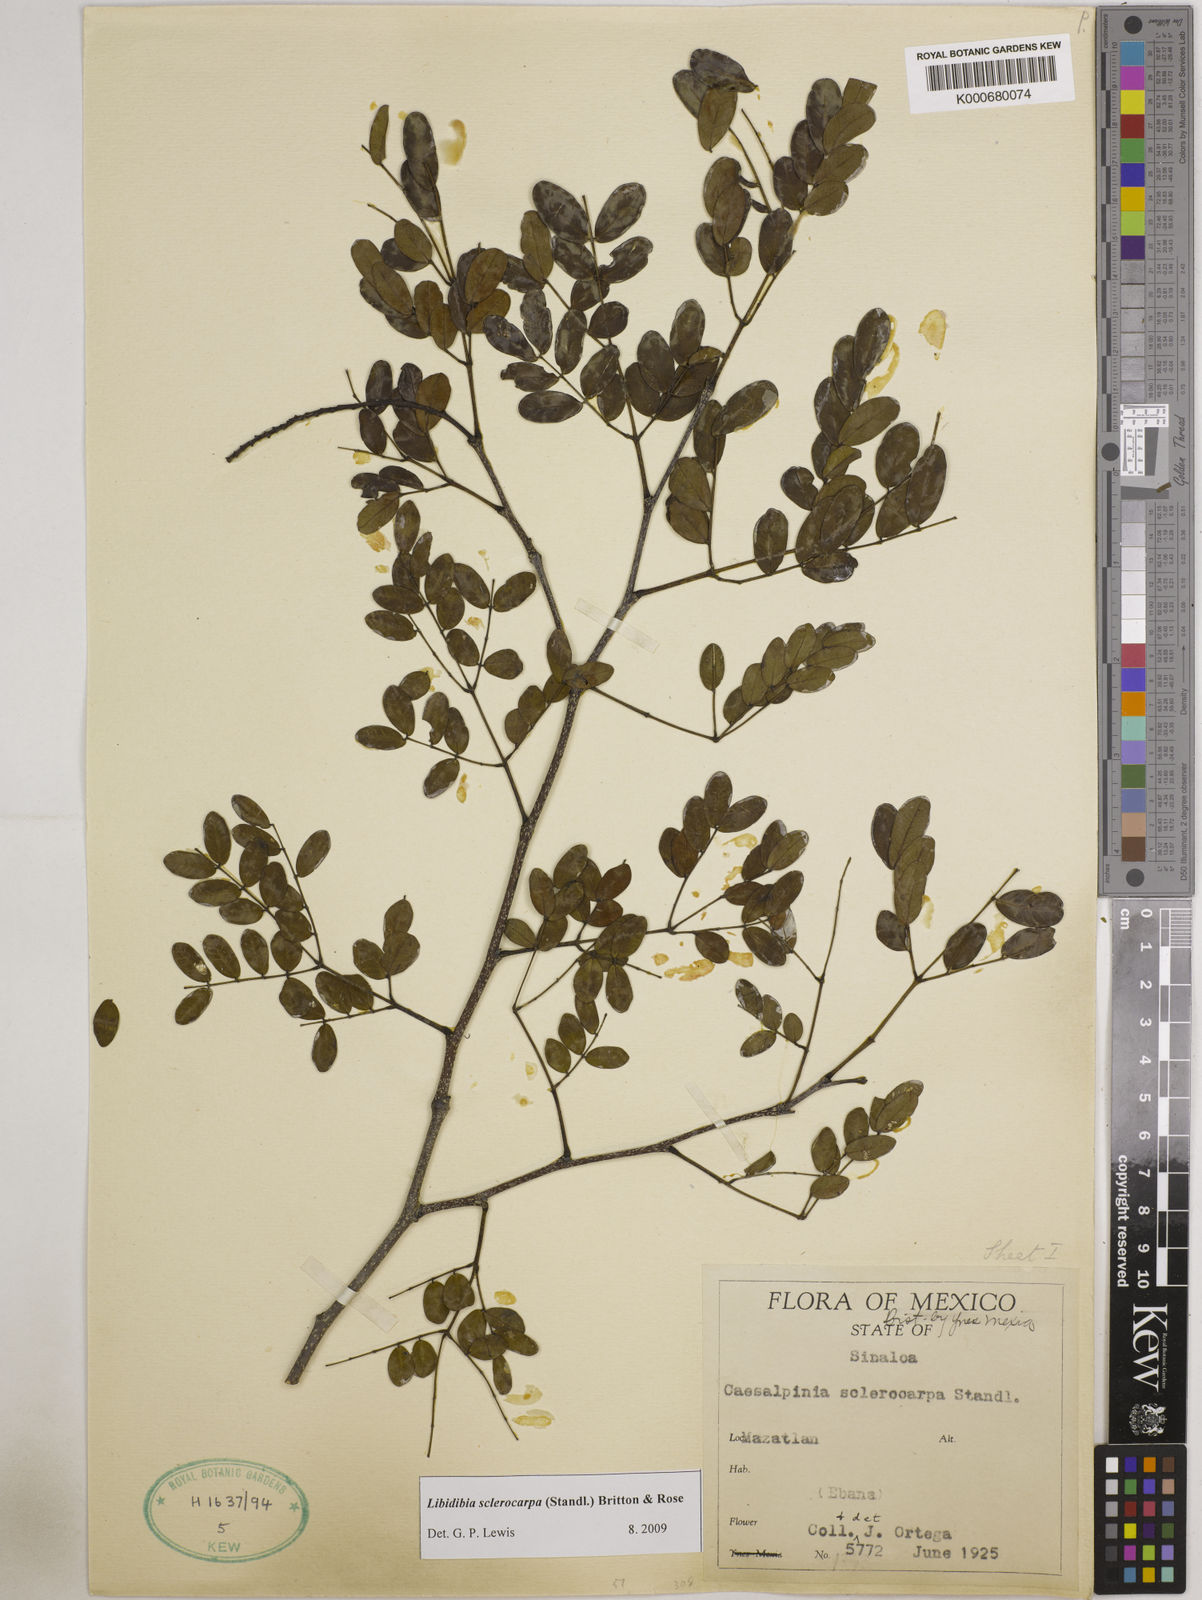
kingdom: Plantae
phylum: Tracheophyta
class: Magnoliopsida
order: Fabales
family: Fabaceae
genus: Libidibia
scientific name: Libidibia sclerocarpa
